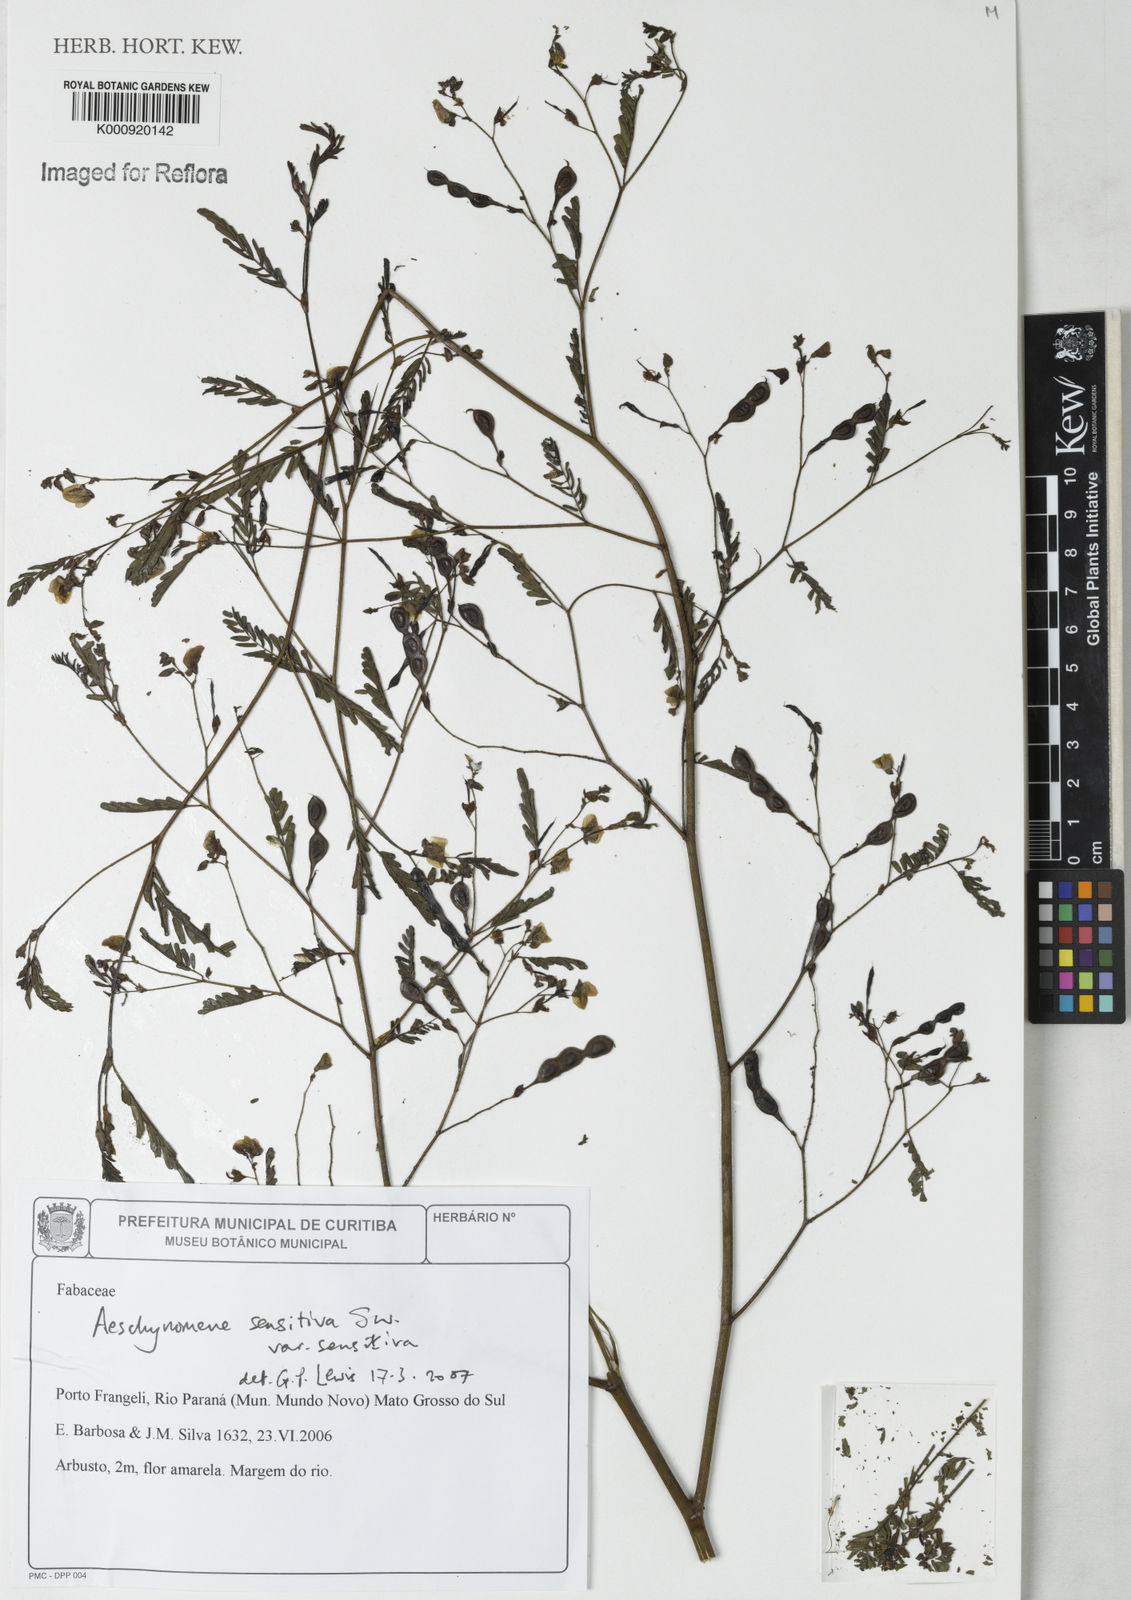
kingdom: Plantae
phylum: Tracheophyta
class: Magnoliopsida
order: Fabales
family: Fabaceae
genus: Aeschynomene
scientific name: Aeschynomene sensitiva
